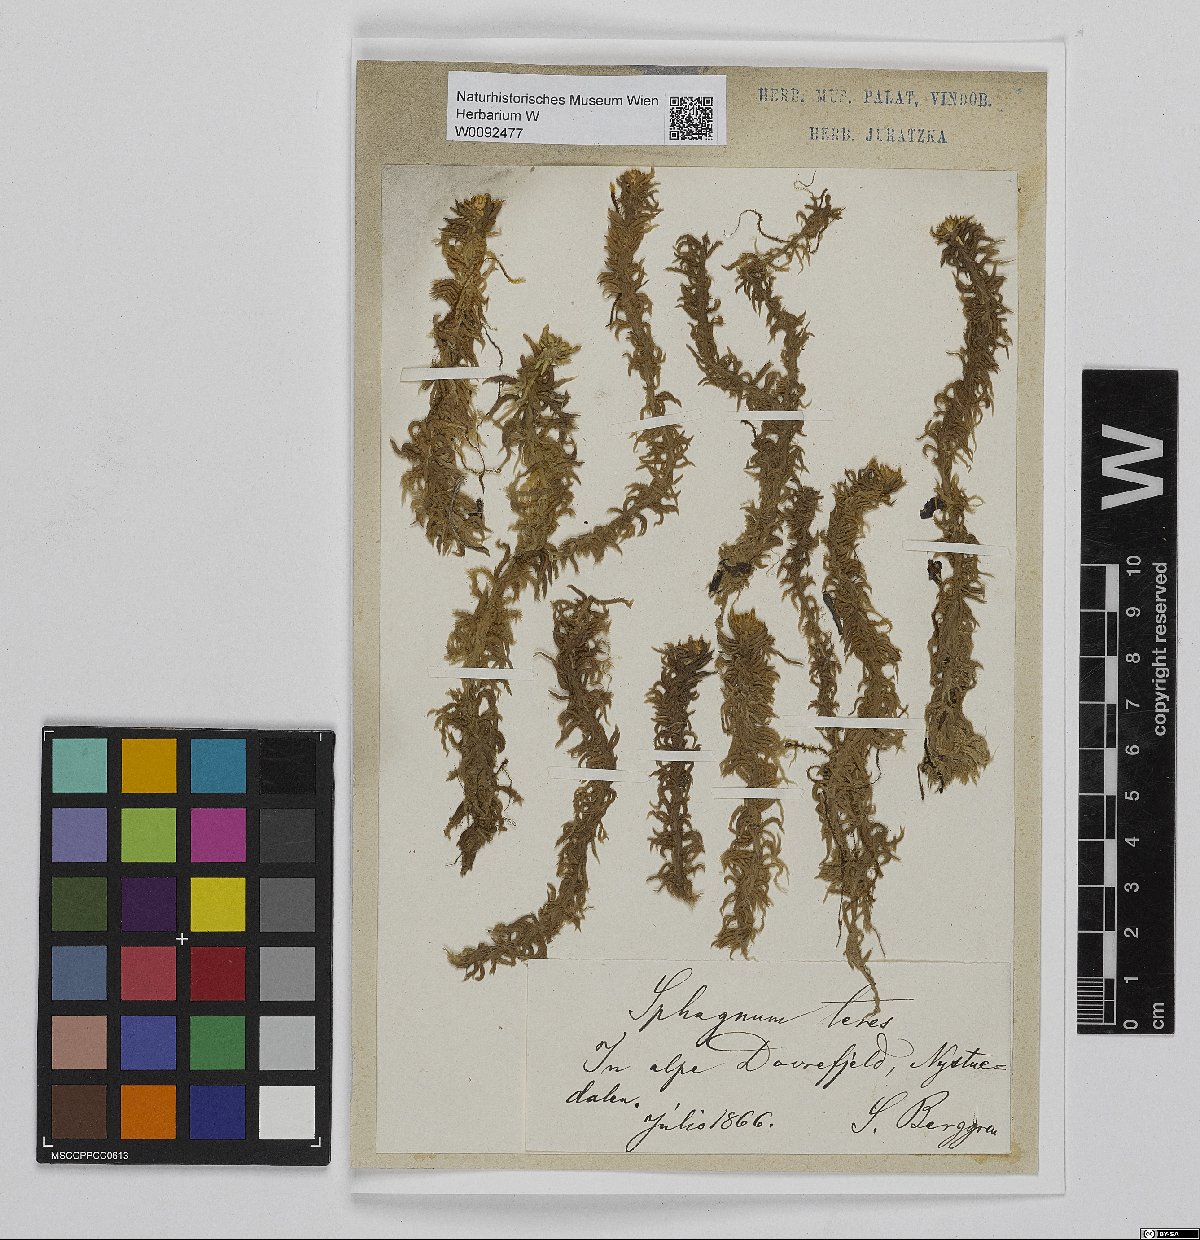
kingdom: Plantae
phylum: Bryophyta
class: Sphagnopsida
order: Sphagnales
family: Sphagnaceae
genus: Sphagnum
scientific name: Sphagnum teres
